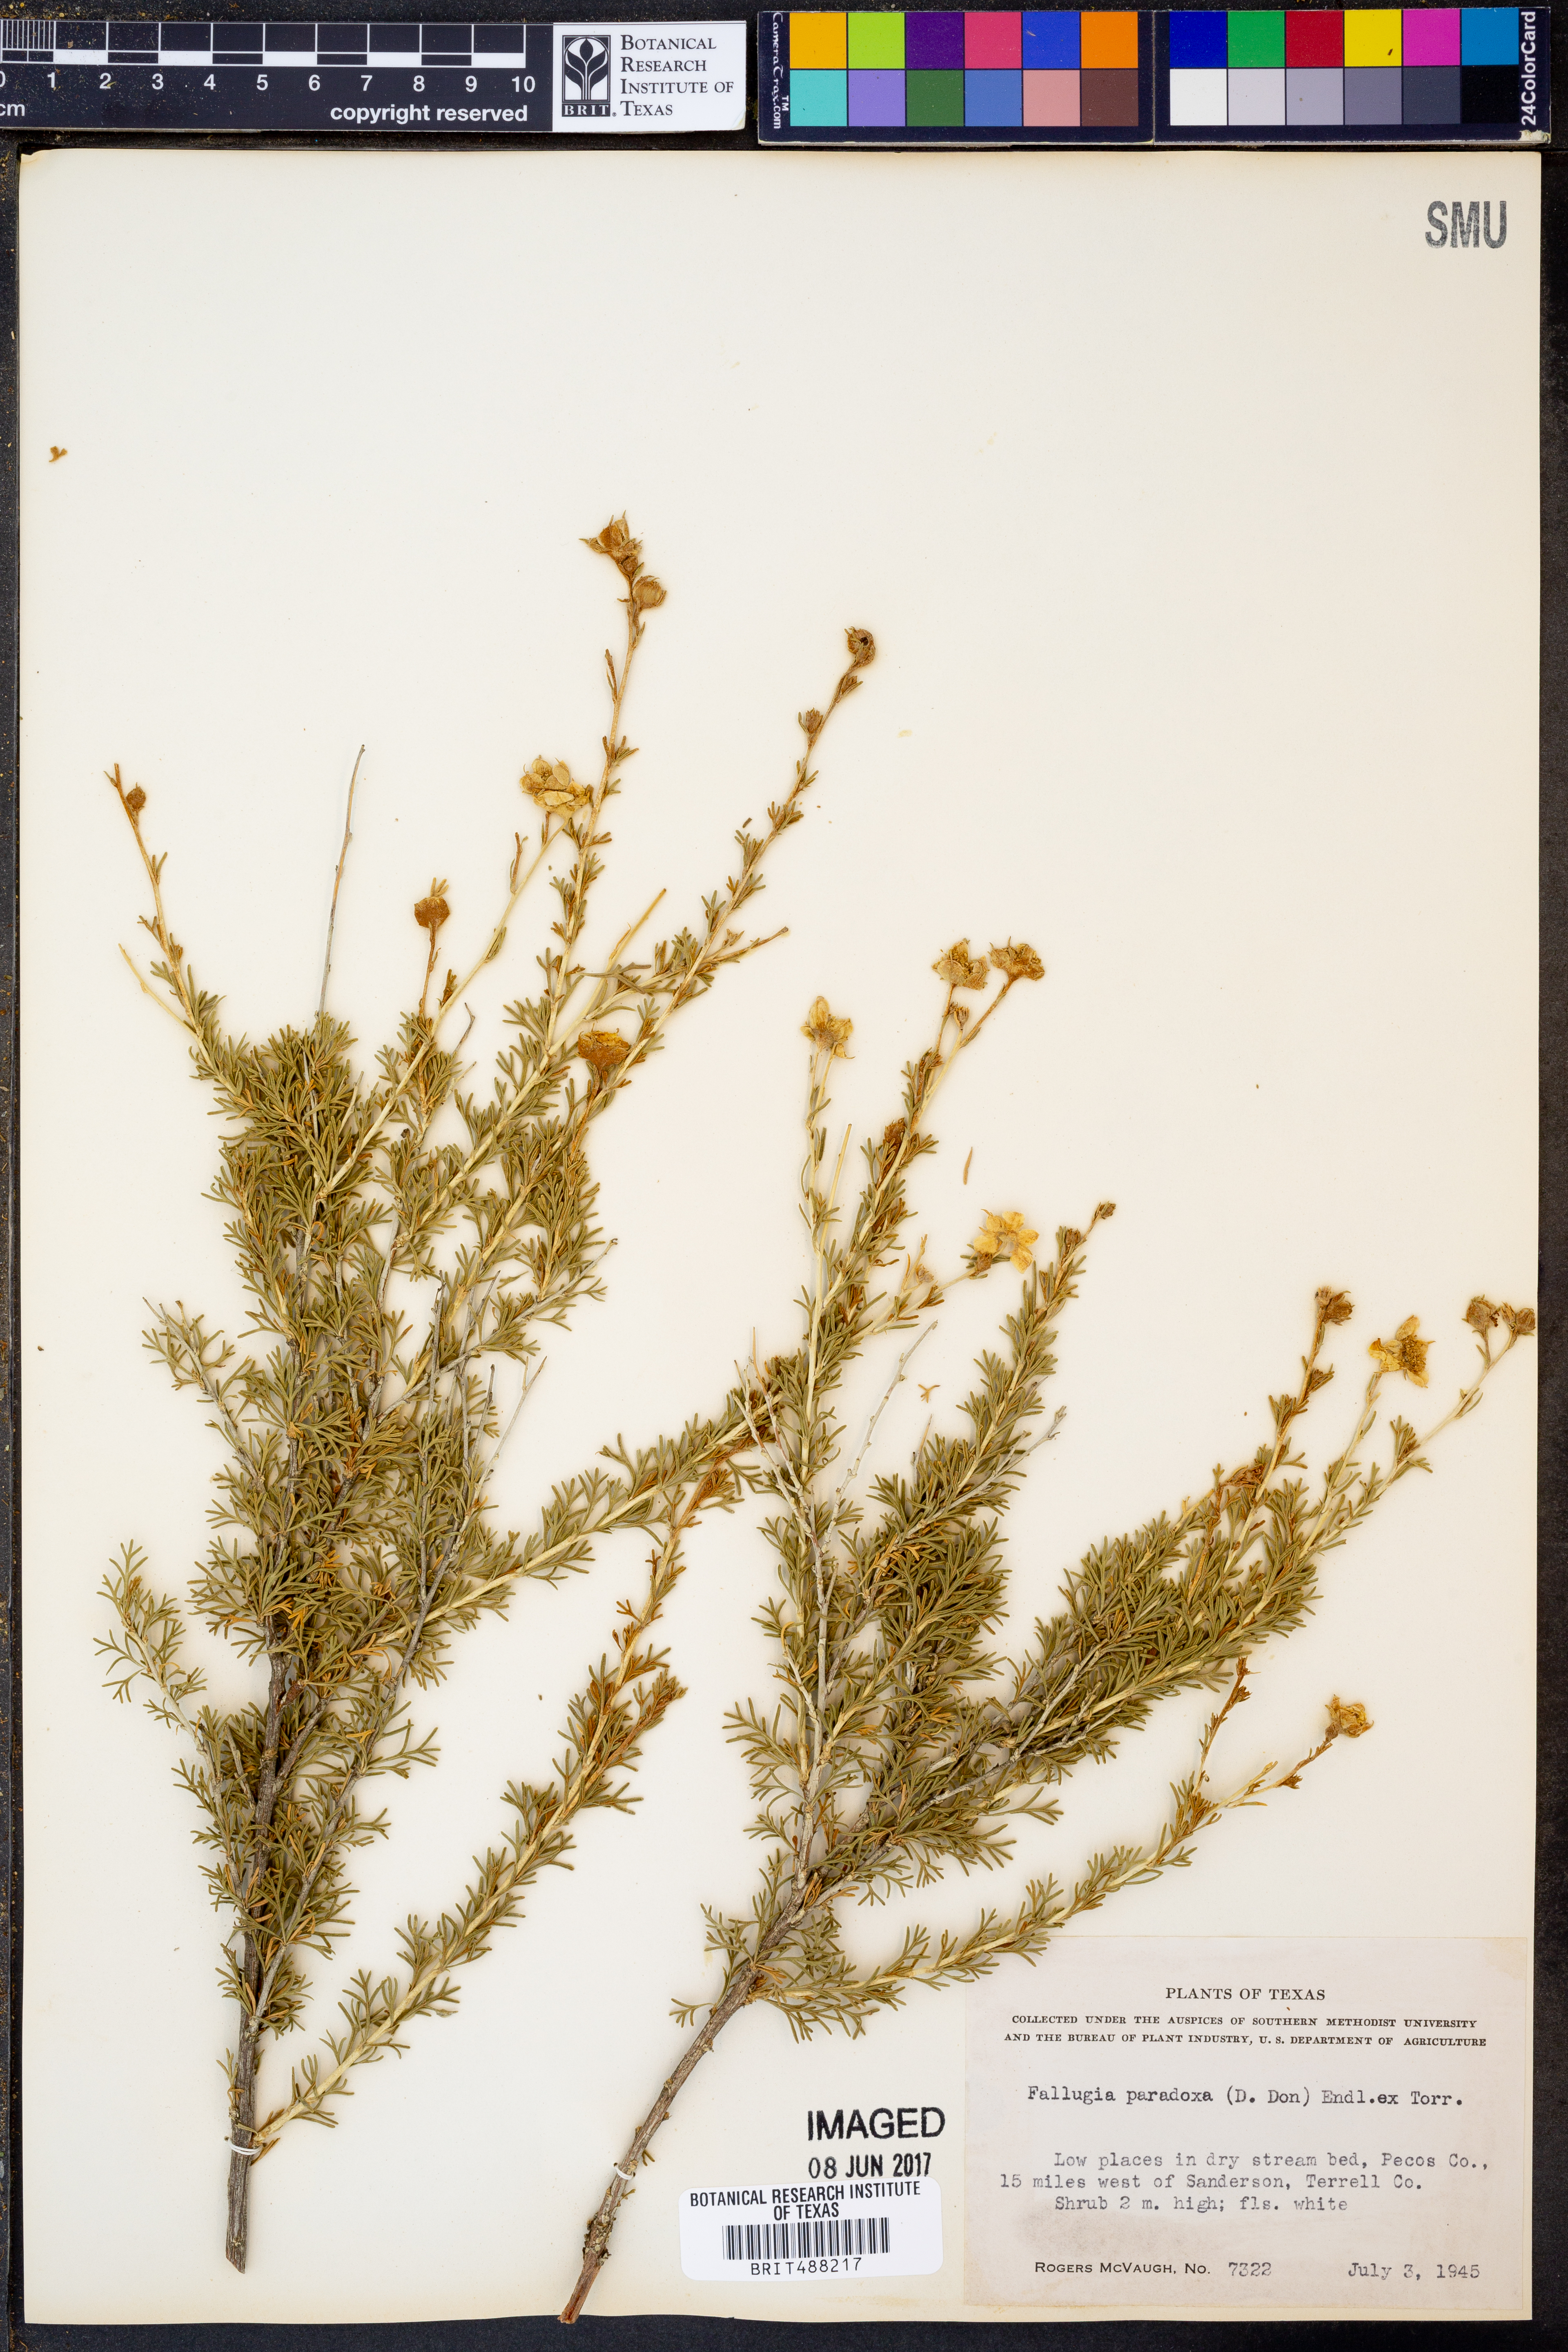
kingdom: Plantae
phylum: Tracheophyta
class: Magnoliopsida
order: Rosales
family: Rosaceae
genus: Fallugia
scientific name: Fallugia paradoxa
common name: Apache-plume
